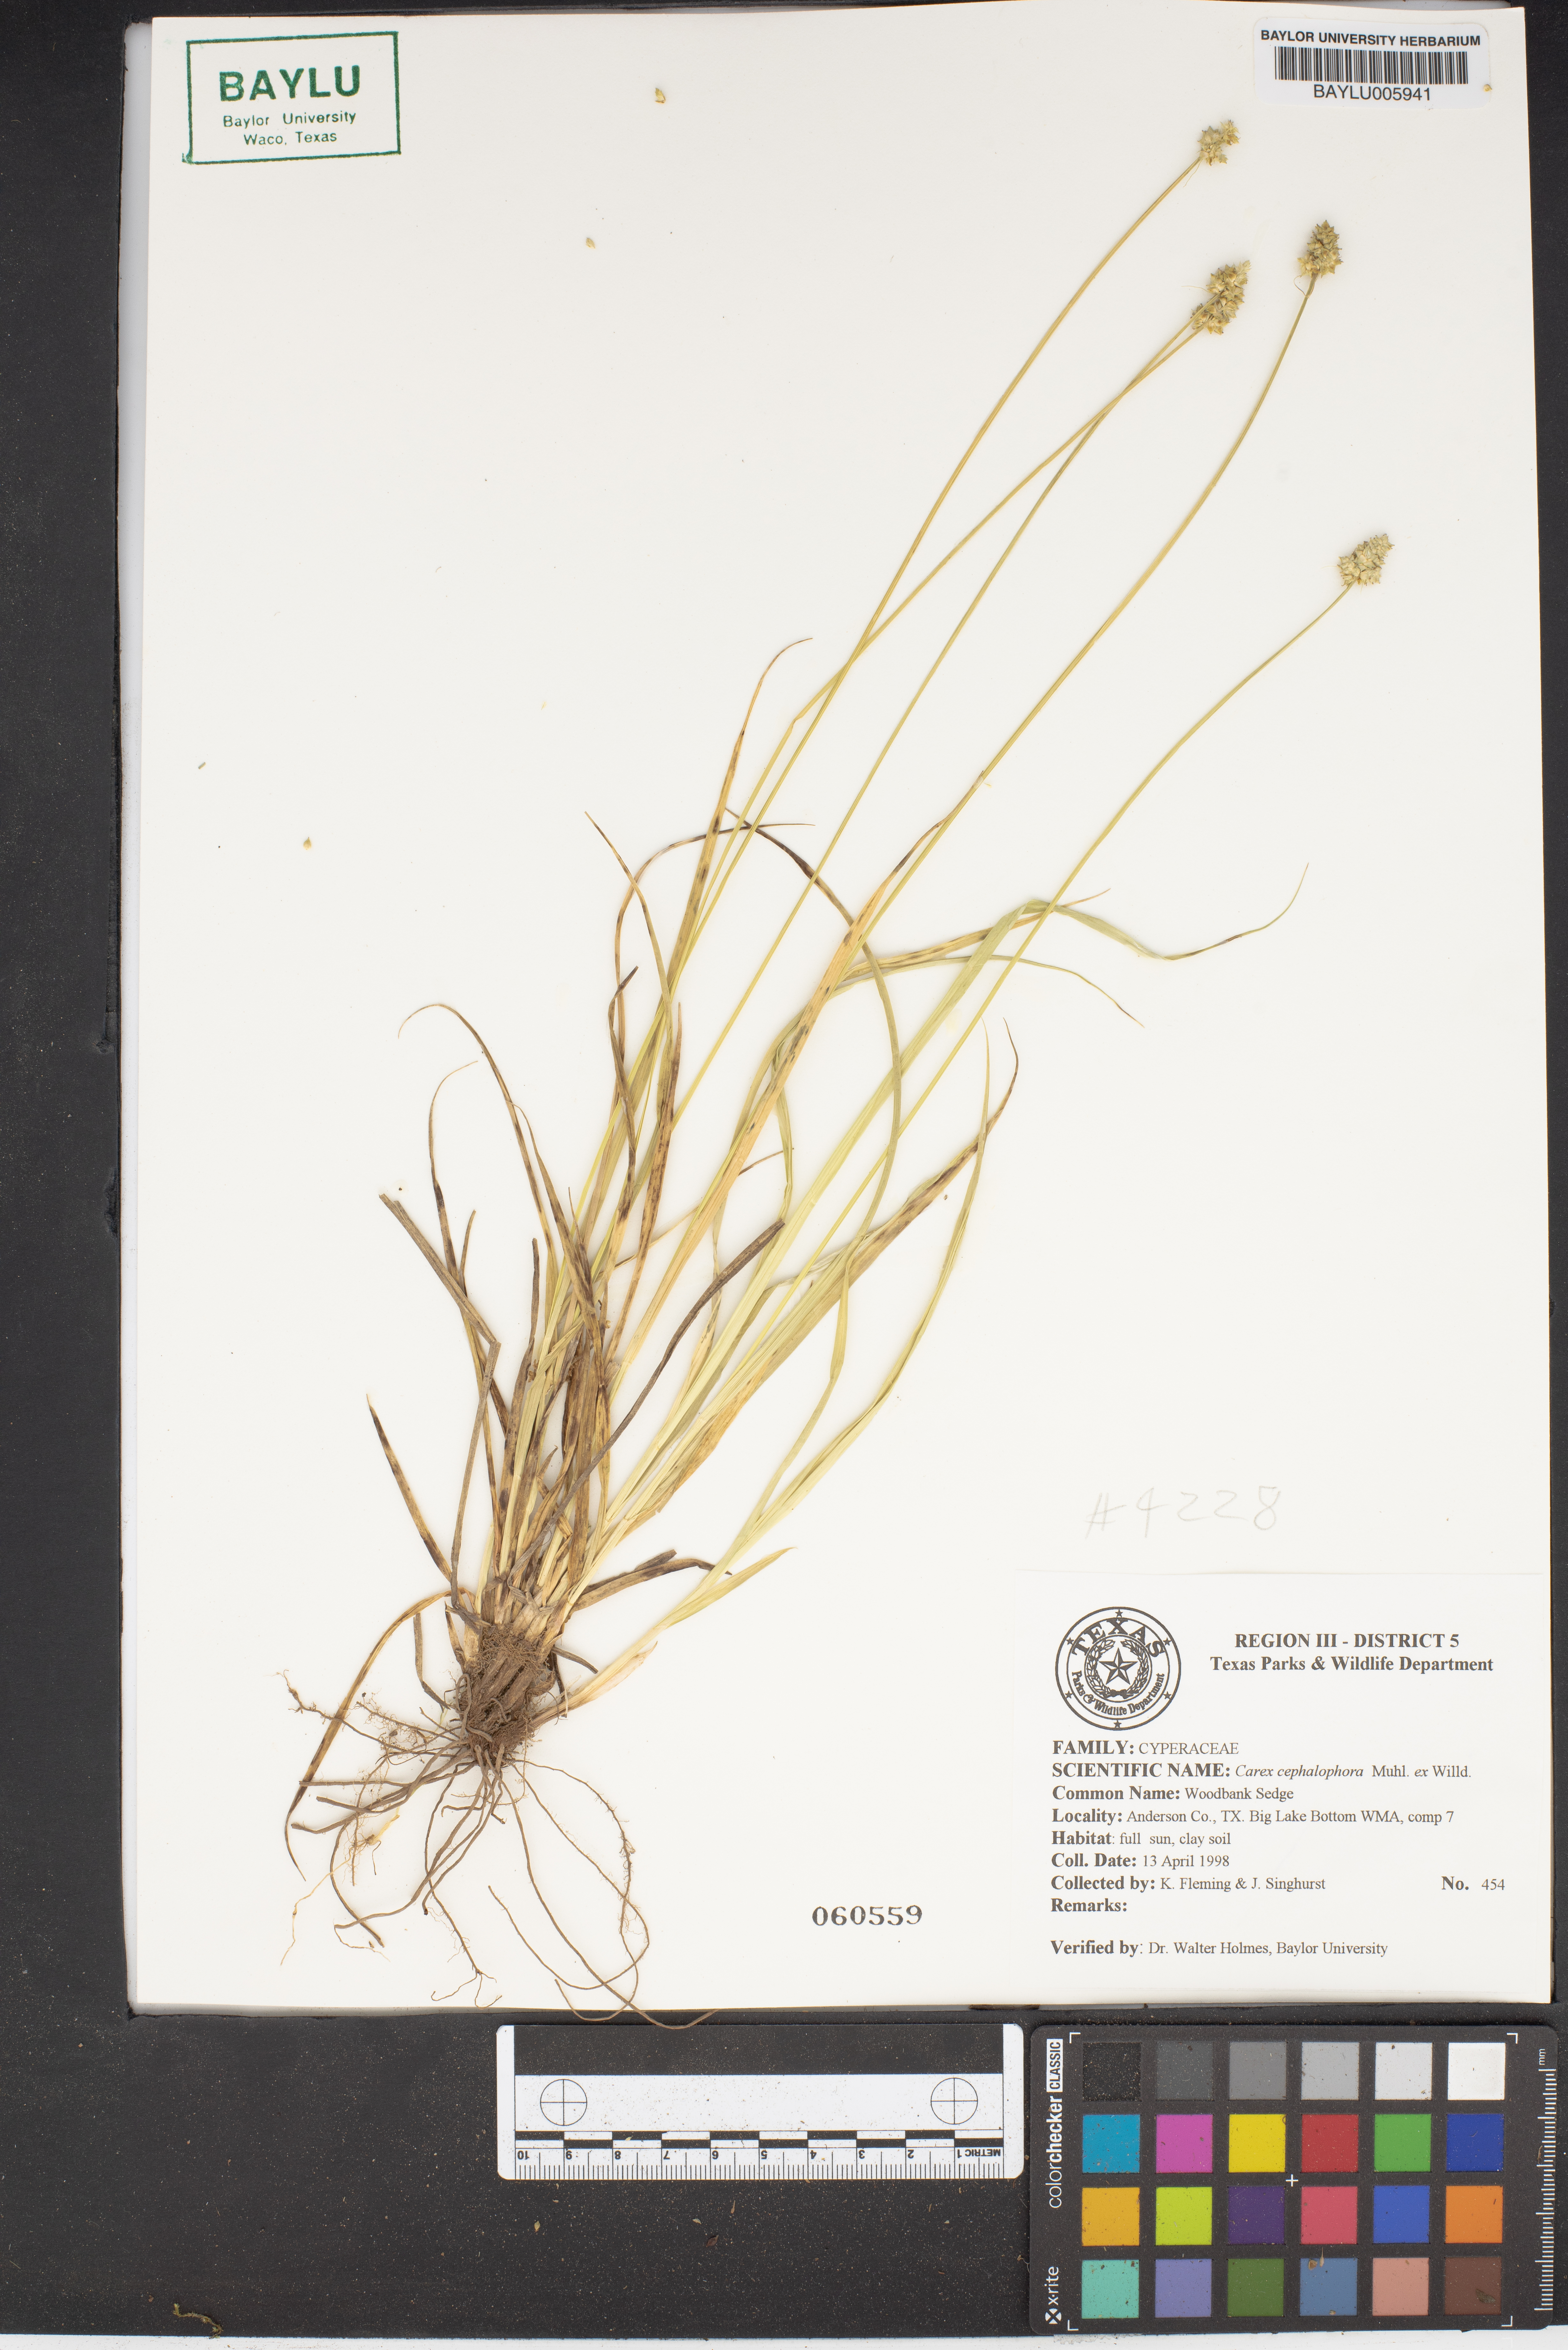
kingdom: Plantae
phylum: Tracheophyta
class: Liliopsida
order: Poales
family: Cyperaceae
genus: Carex
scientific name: Carex cephalophora
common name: Oval-headed sedge
